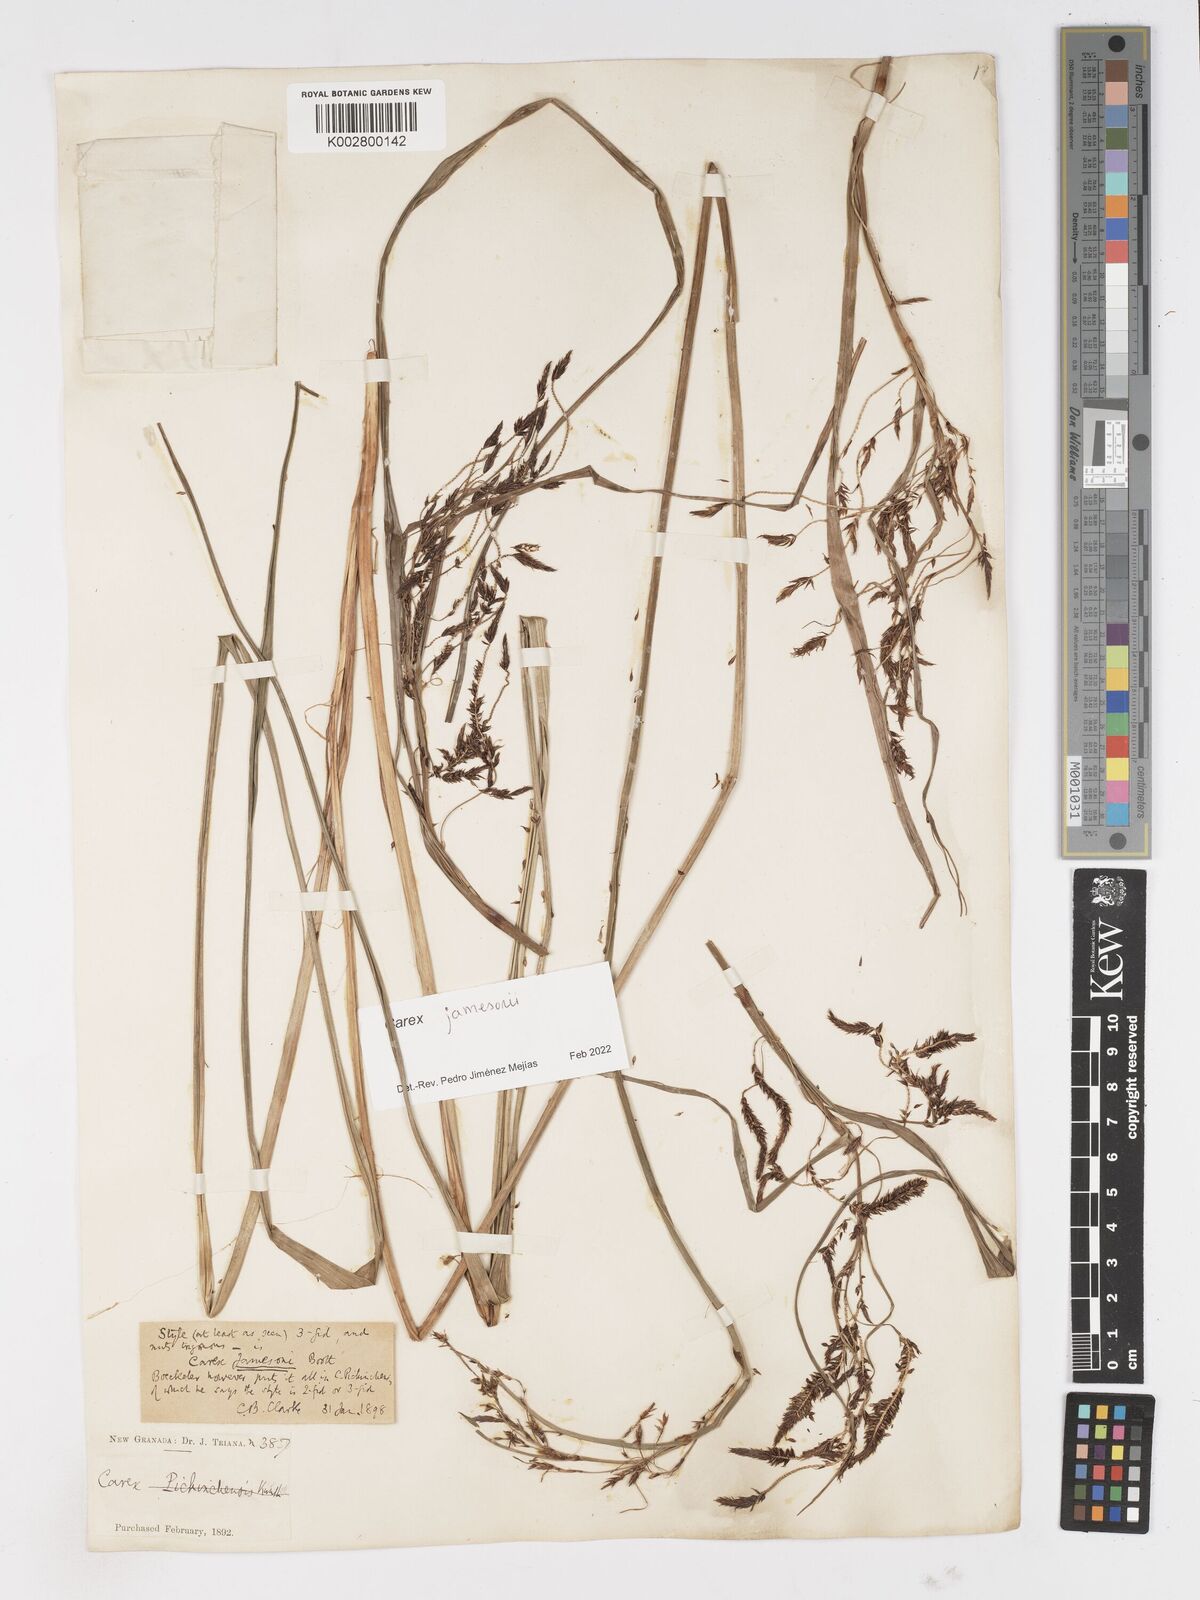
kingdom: Plantae
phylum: Tracheophyta
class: Liliopsida
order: Poales
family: Cyperaceae
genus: Carex
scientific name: Carex jamesonii
